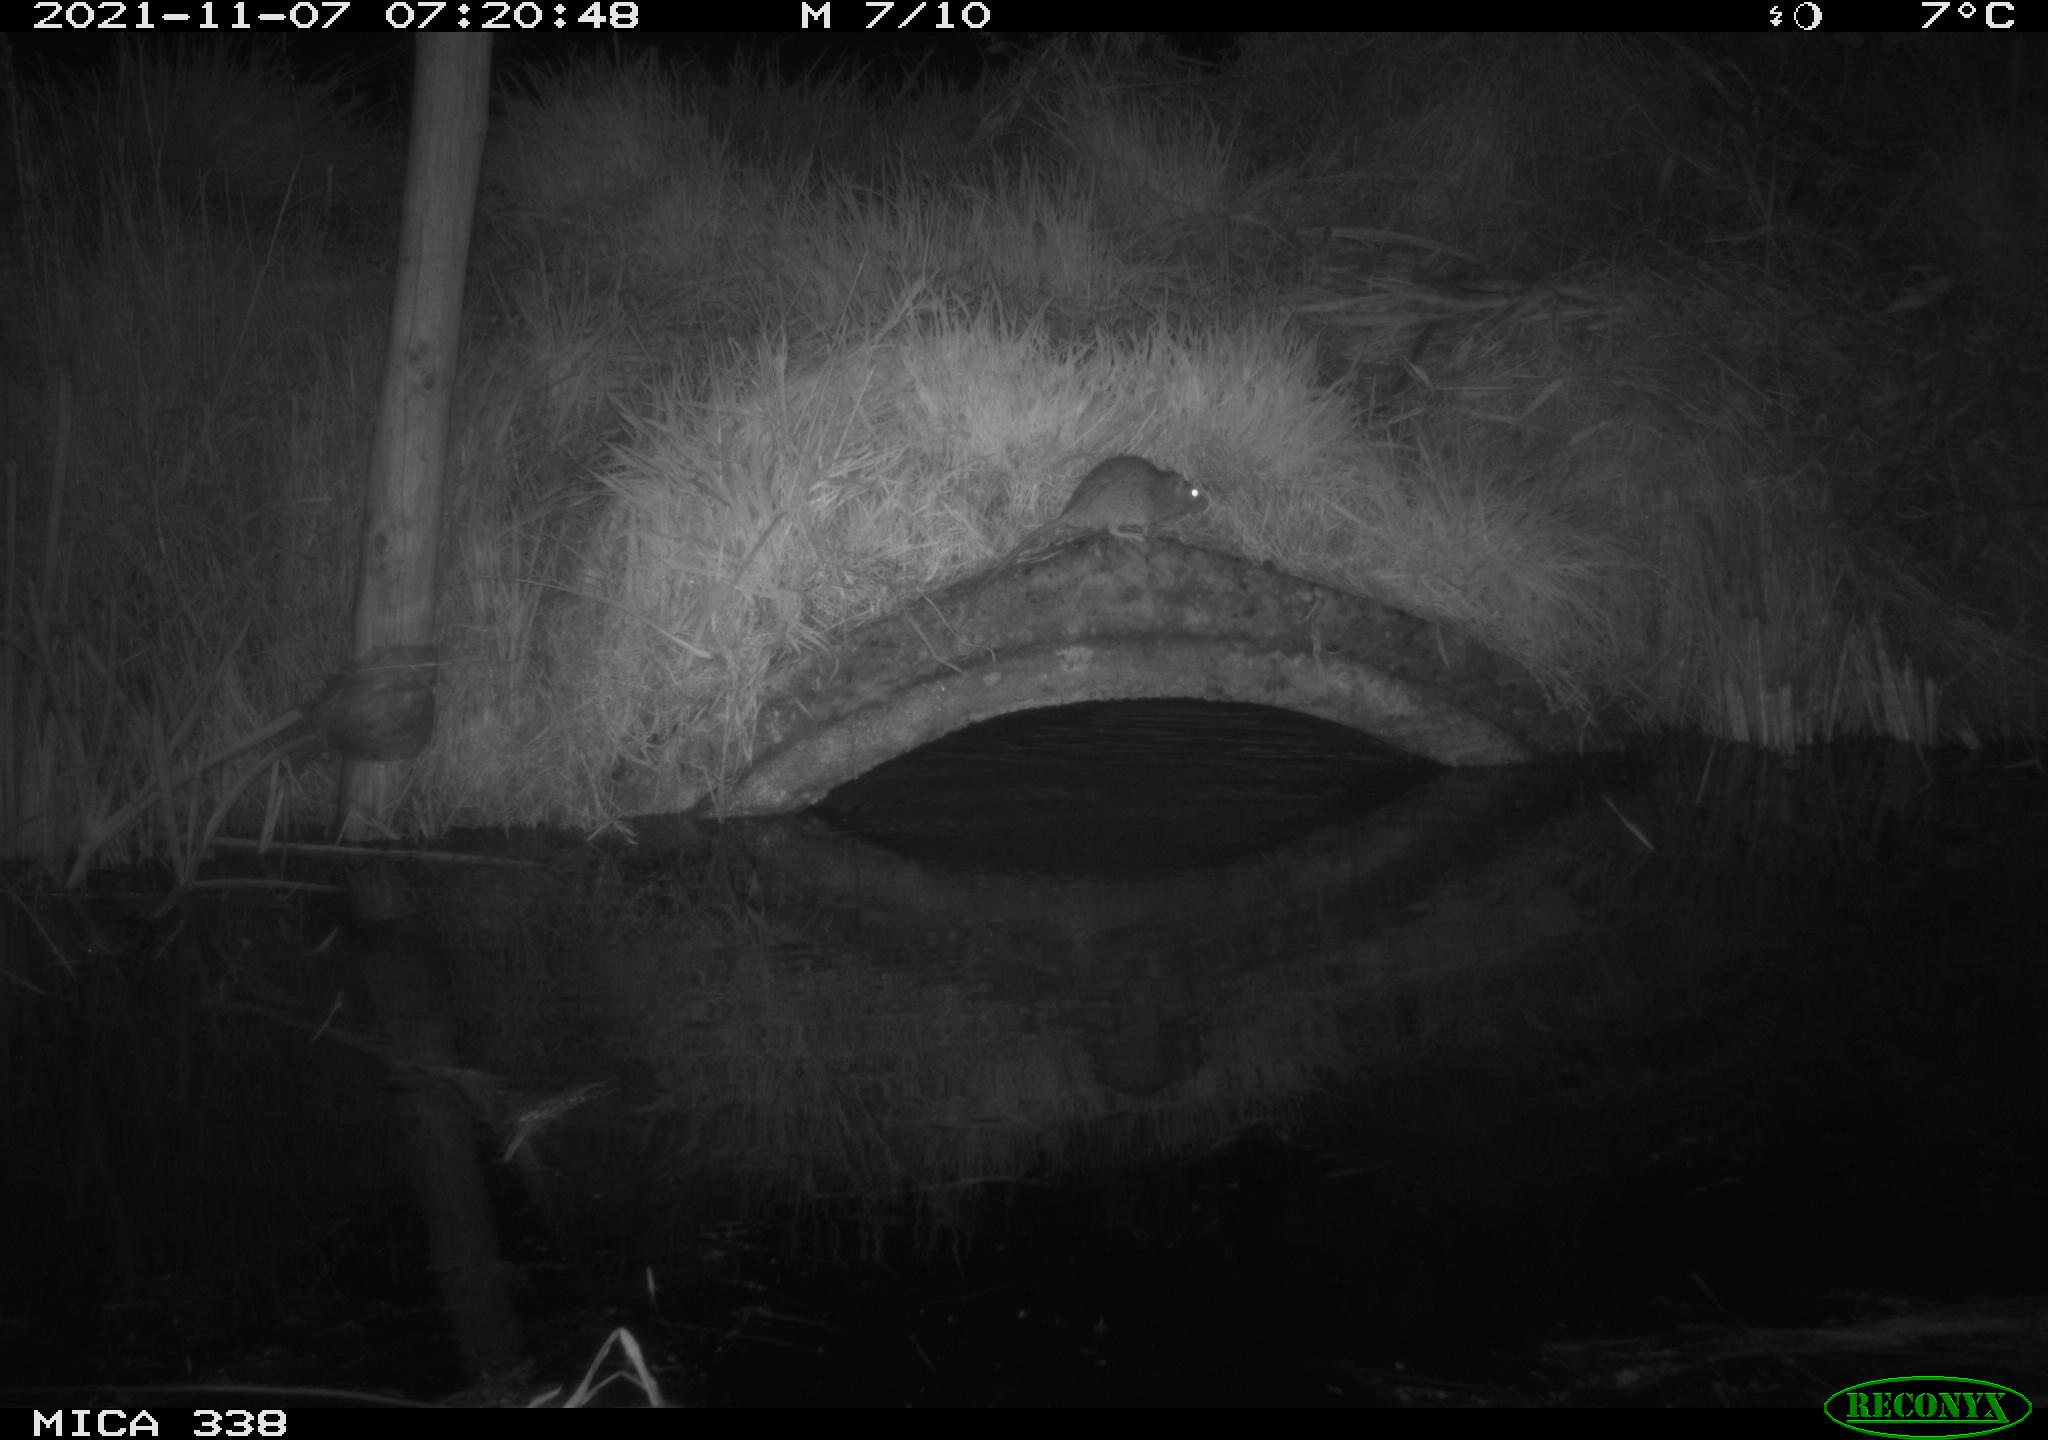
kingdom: Animalia
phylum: Chordata
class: Mammalia
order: Rodentia
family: Muridae
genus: Rattus
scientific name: Rattus norvegicus
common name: Brown rat
